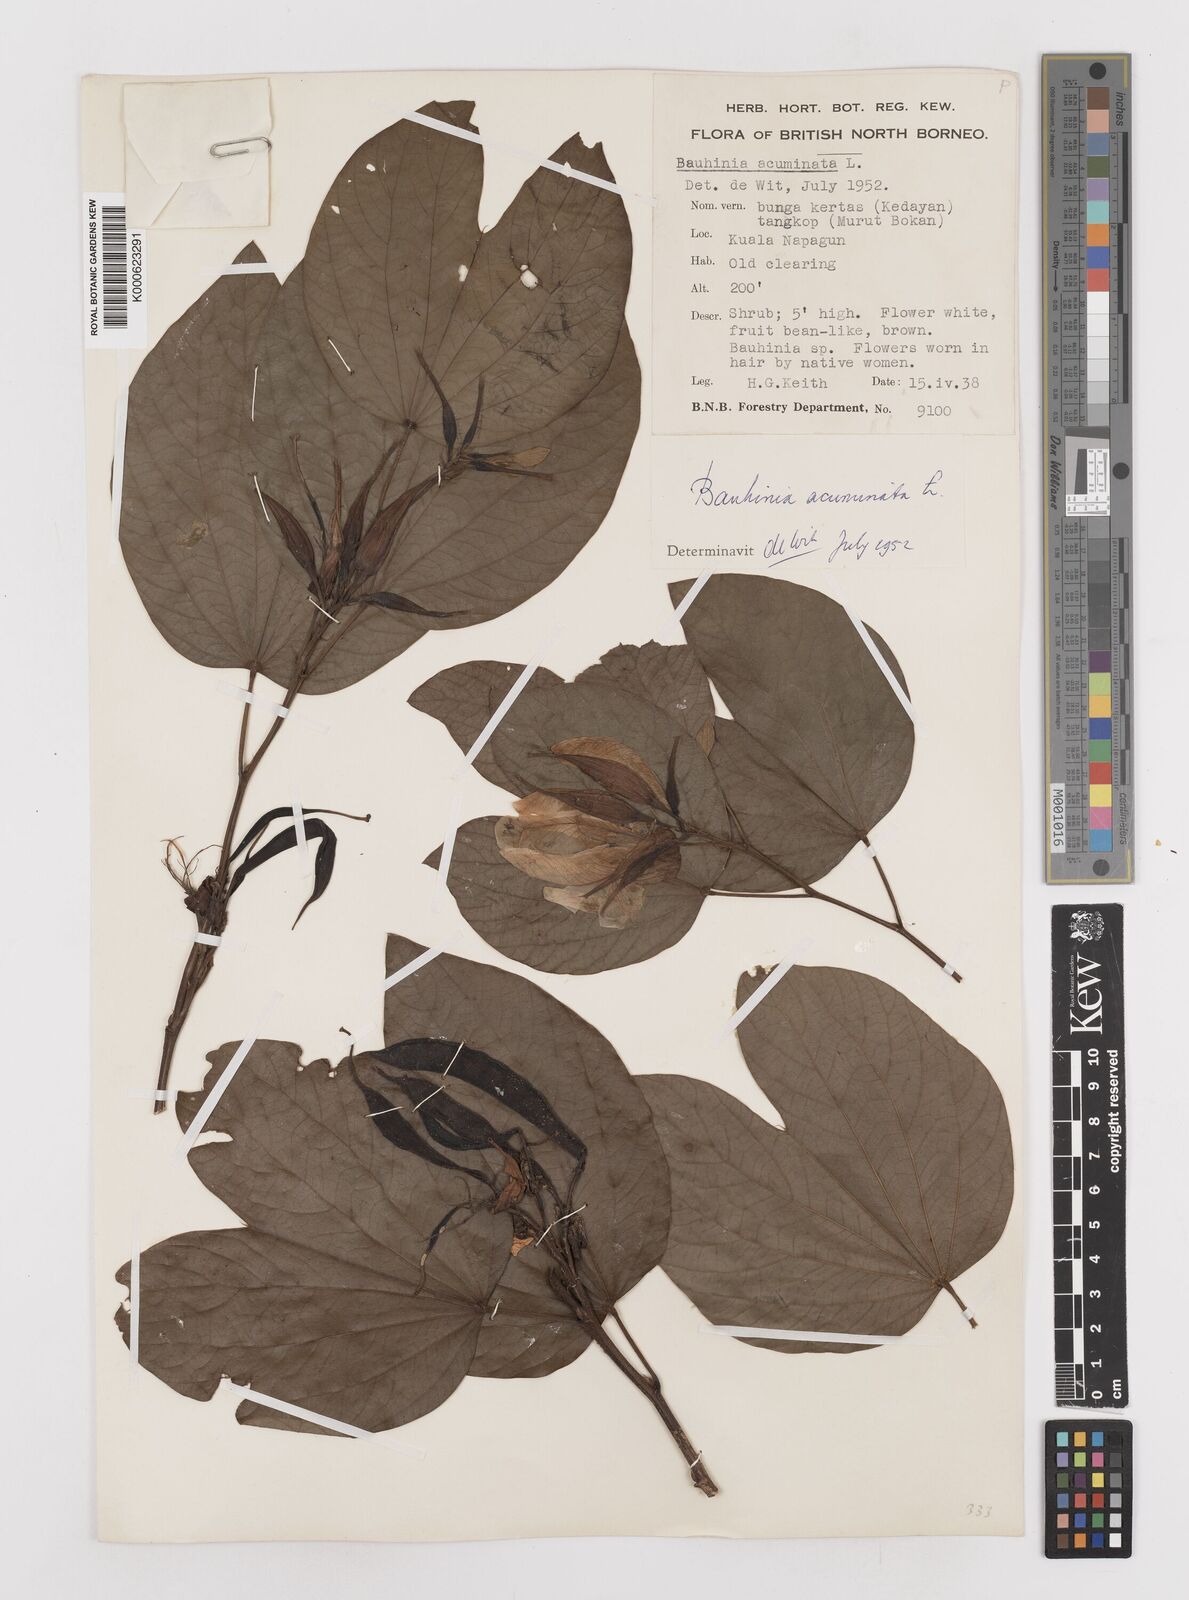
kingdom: Plantae
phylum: Tracheophyta
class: Magnoliopsida
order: Fabales
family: Fabaceae
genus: Bauhinia
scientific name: Bauhinia acuminata
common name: Dwarf white bauhinia
